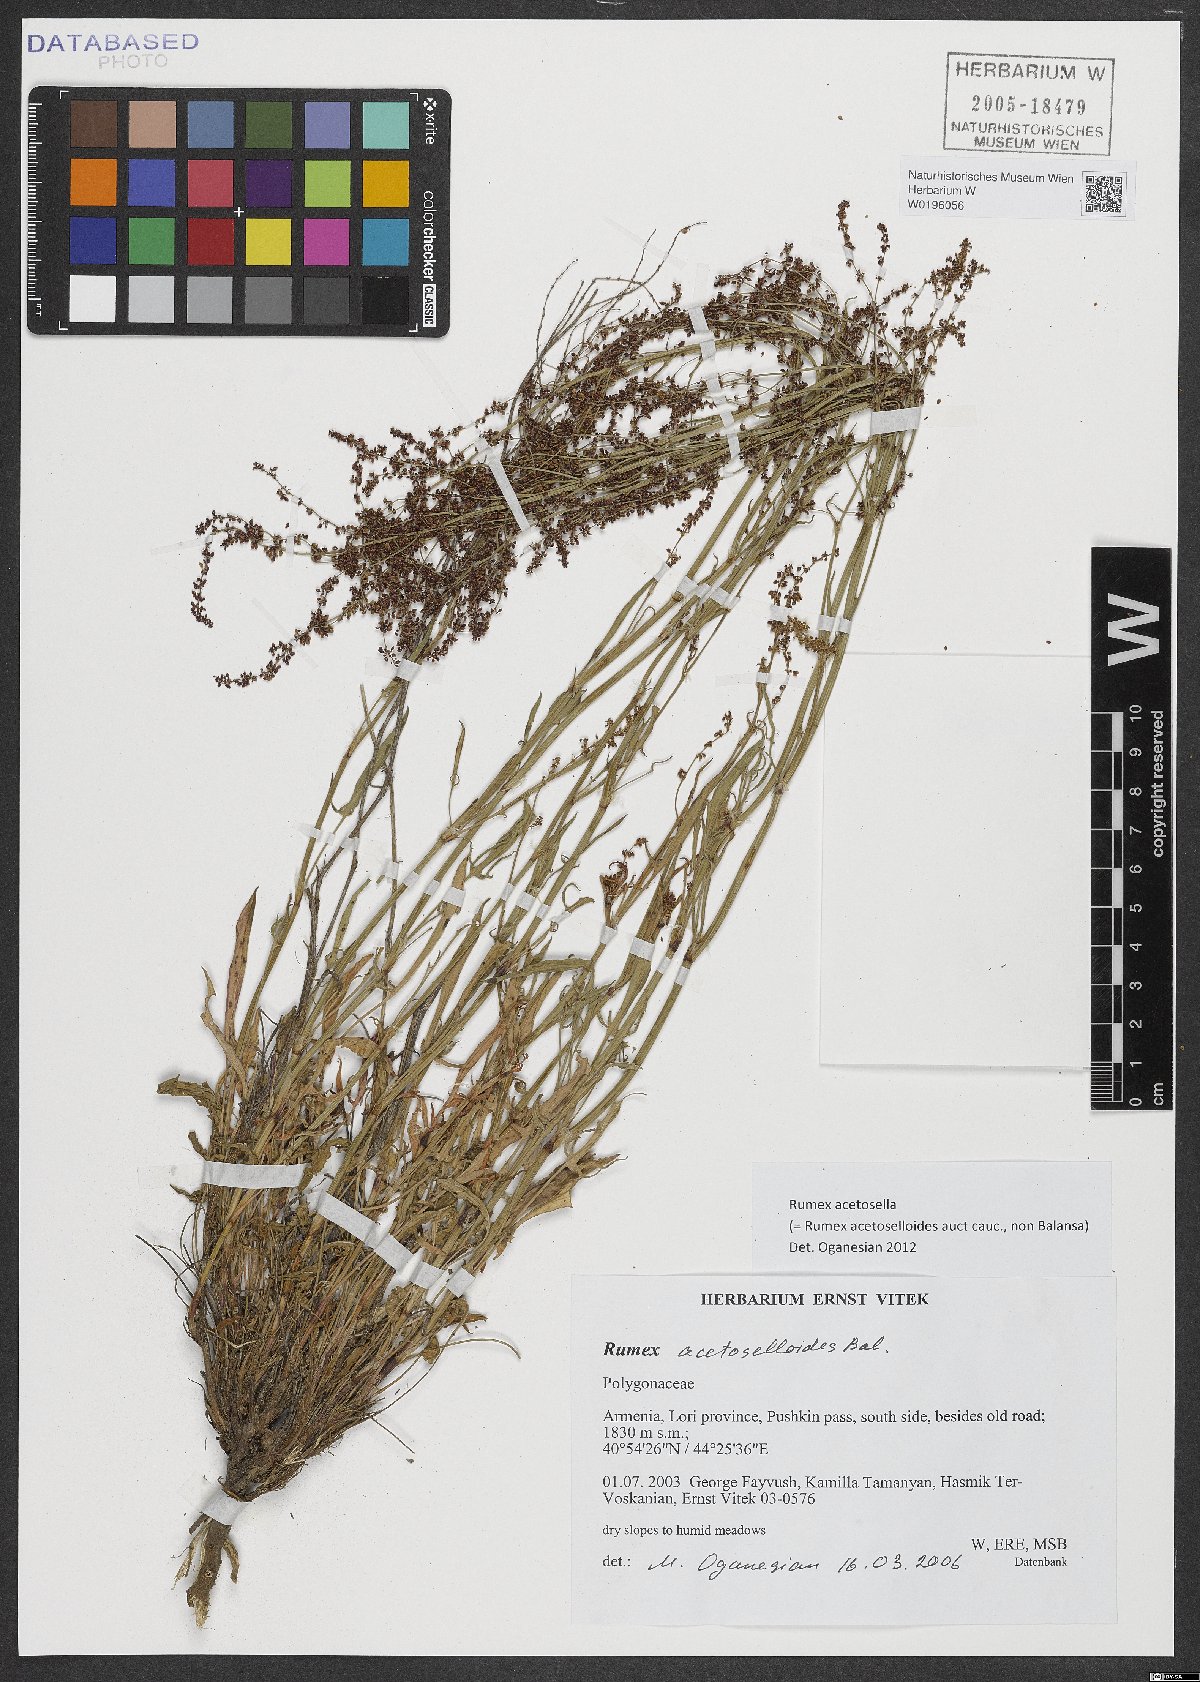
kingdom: Plantae
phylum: Tracheophyta
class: Magnoliopsida
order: Caryophyllales
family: Polygonaceae
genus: Rumex
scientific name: Rumex acetosella
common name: Common sheep sorrel
